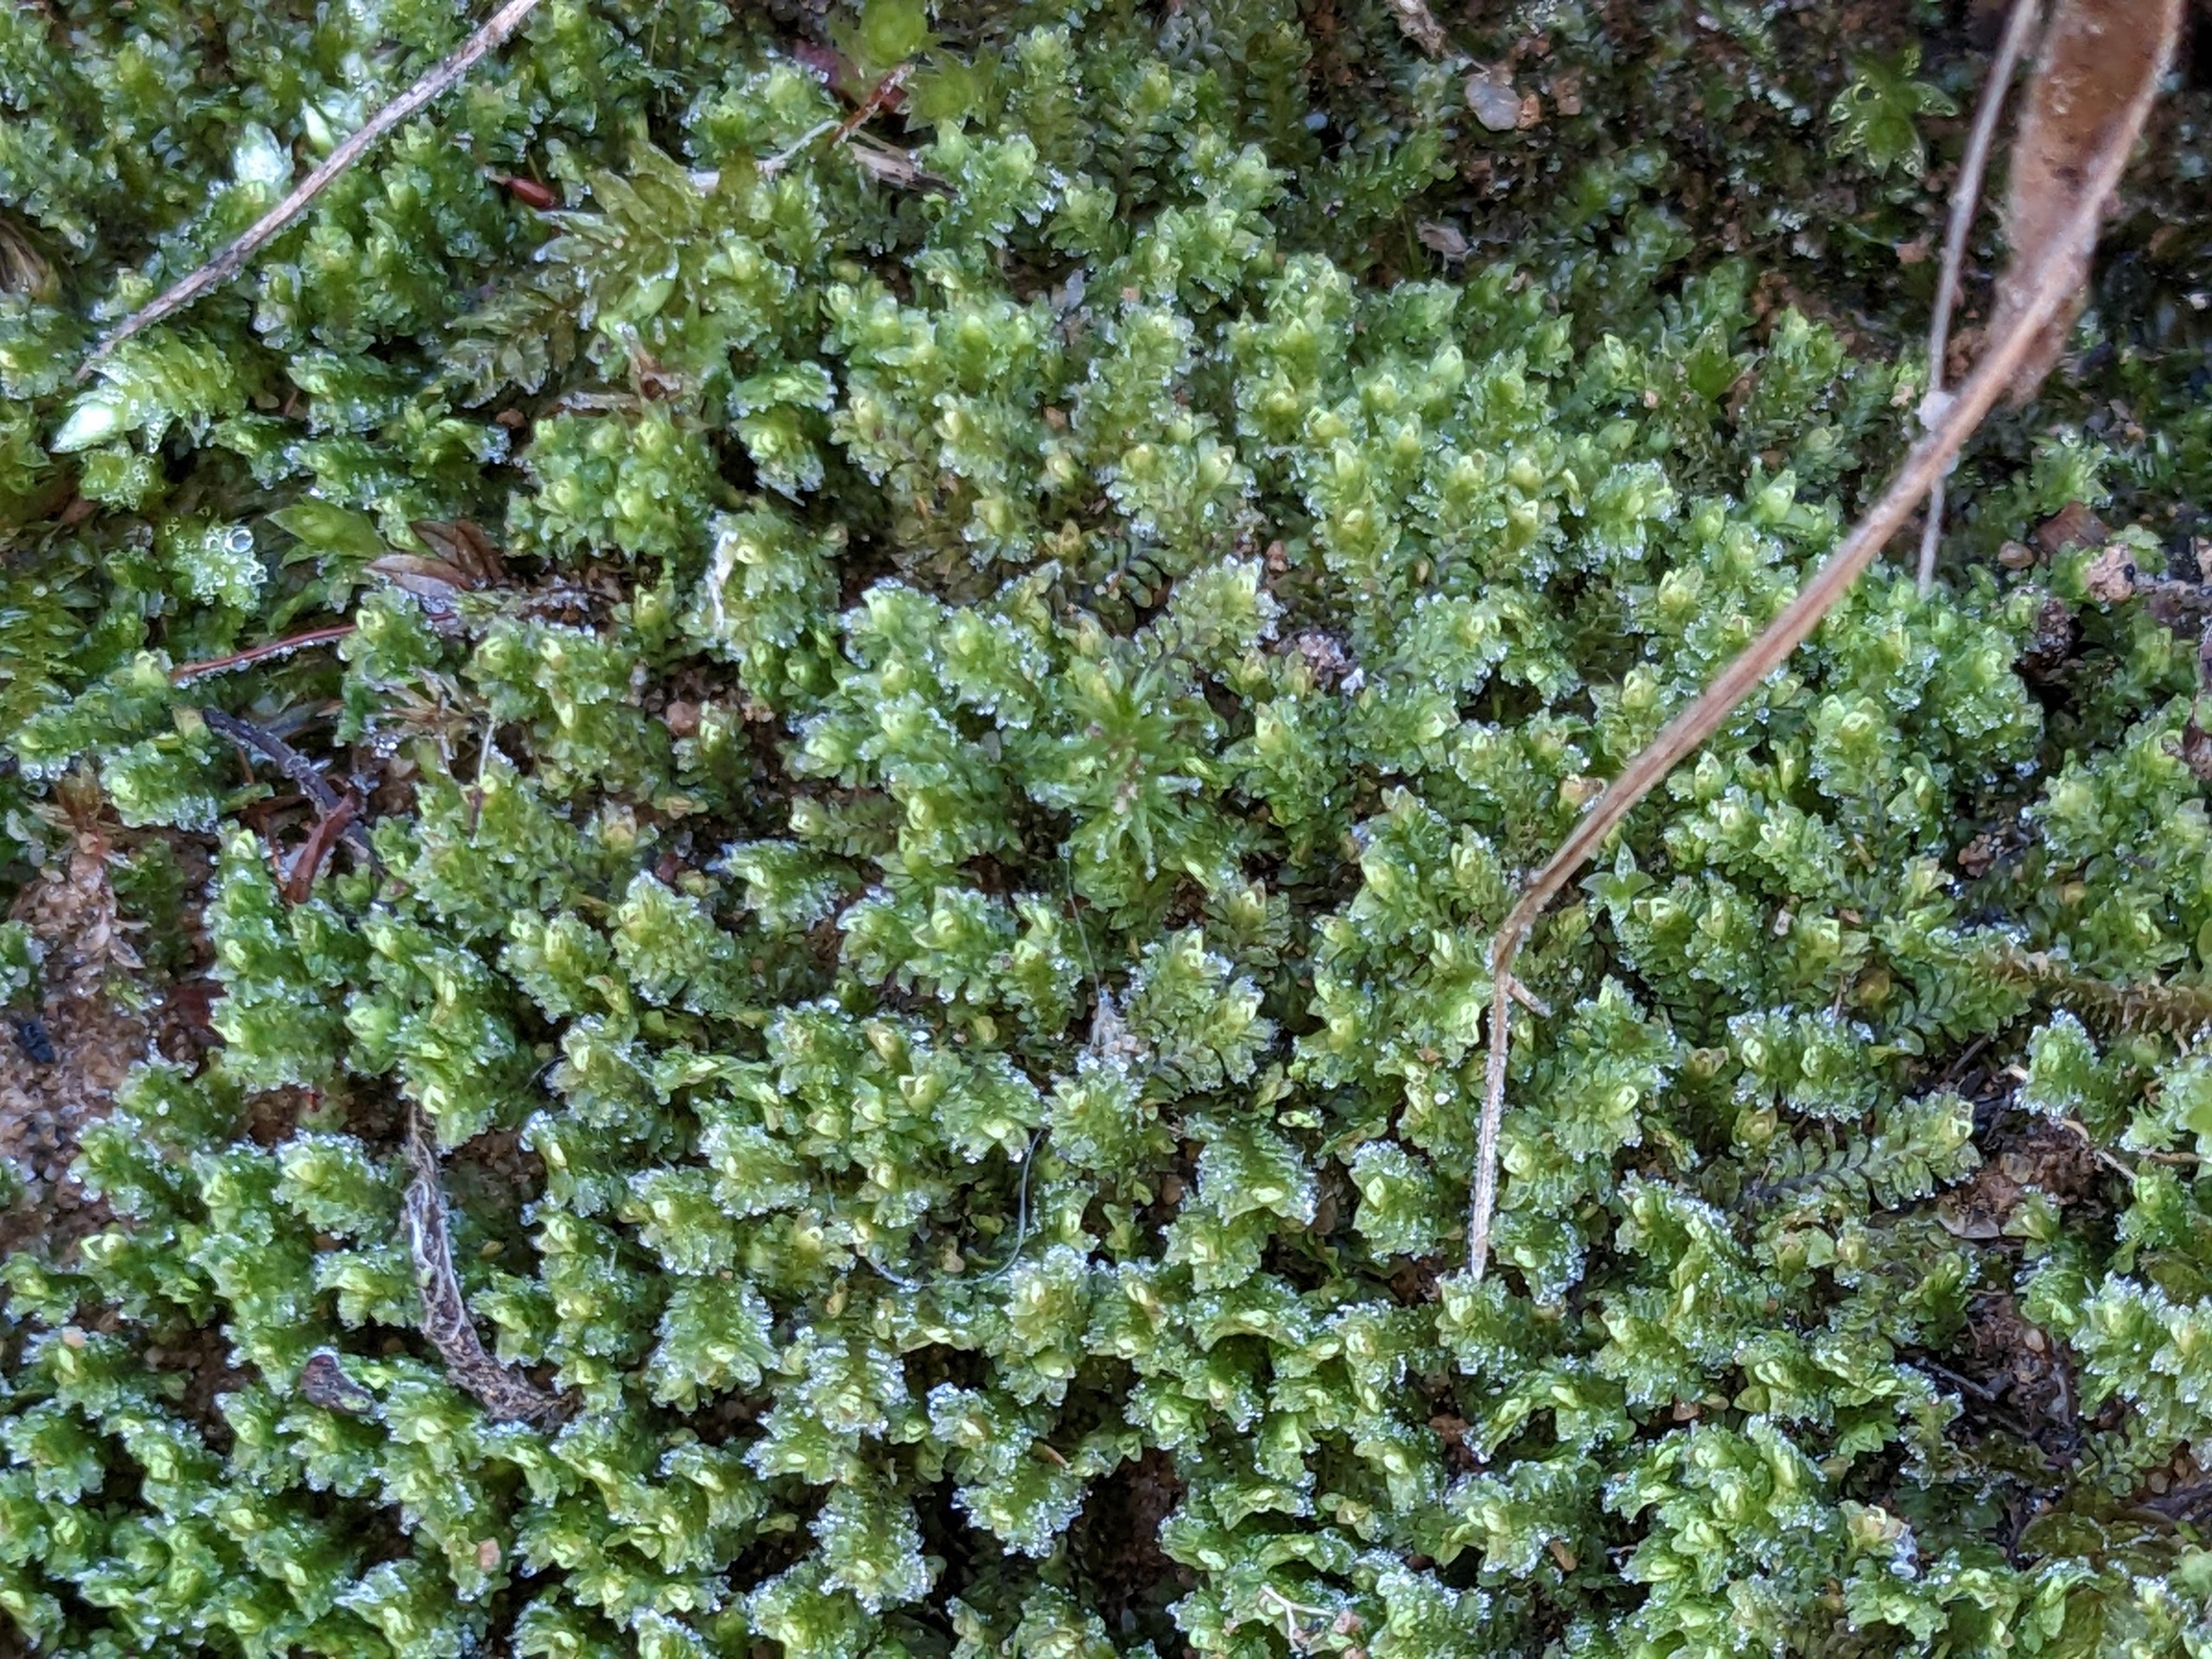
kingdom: Plantae
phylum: Marchantiophyta
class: Jungermanniopsida
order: Jungermanniales
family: Scapaniaceae
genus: Diplophyllum
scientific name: Diplophyllum albicans
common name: Stribet dobbeltblad
